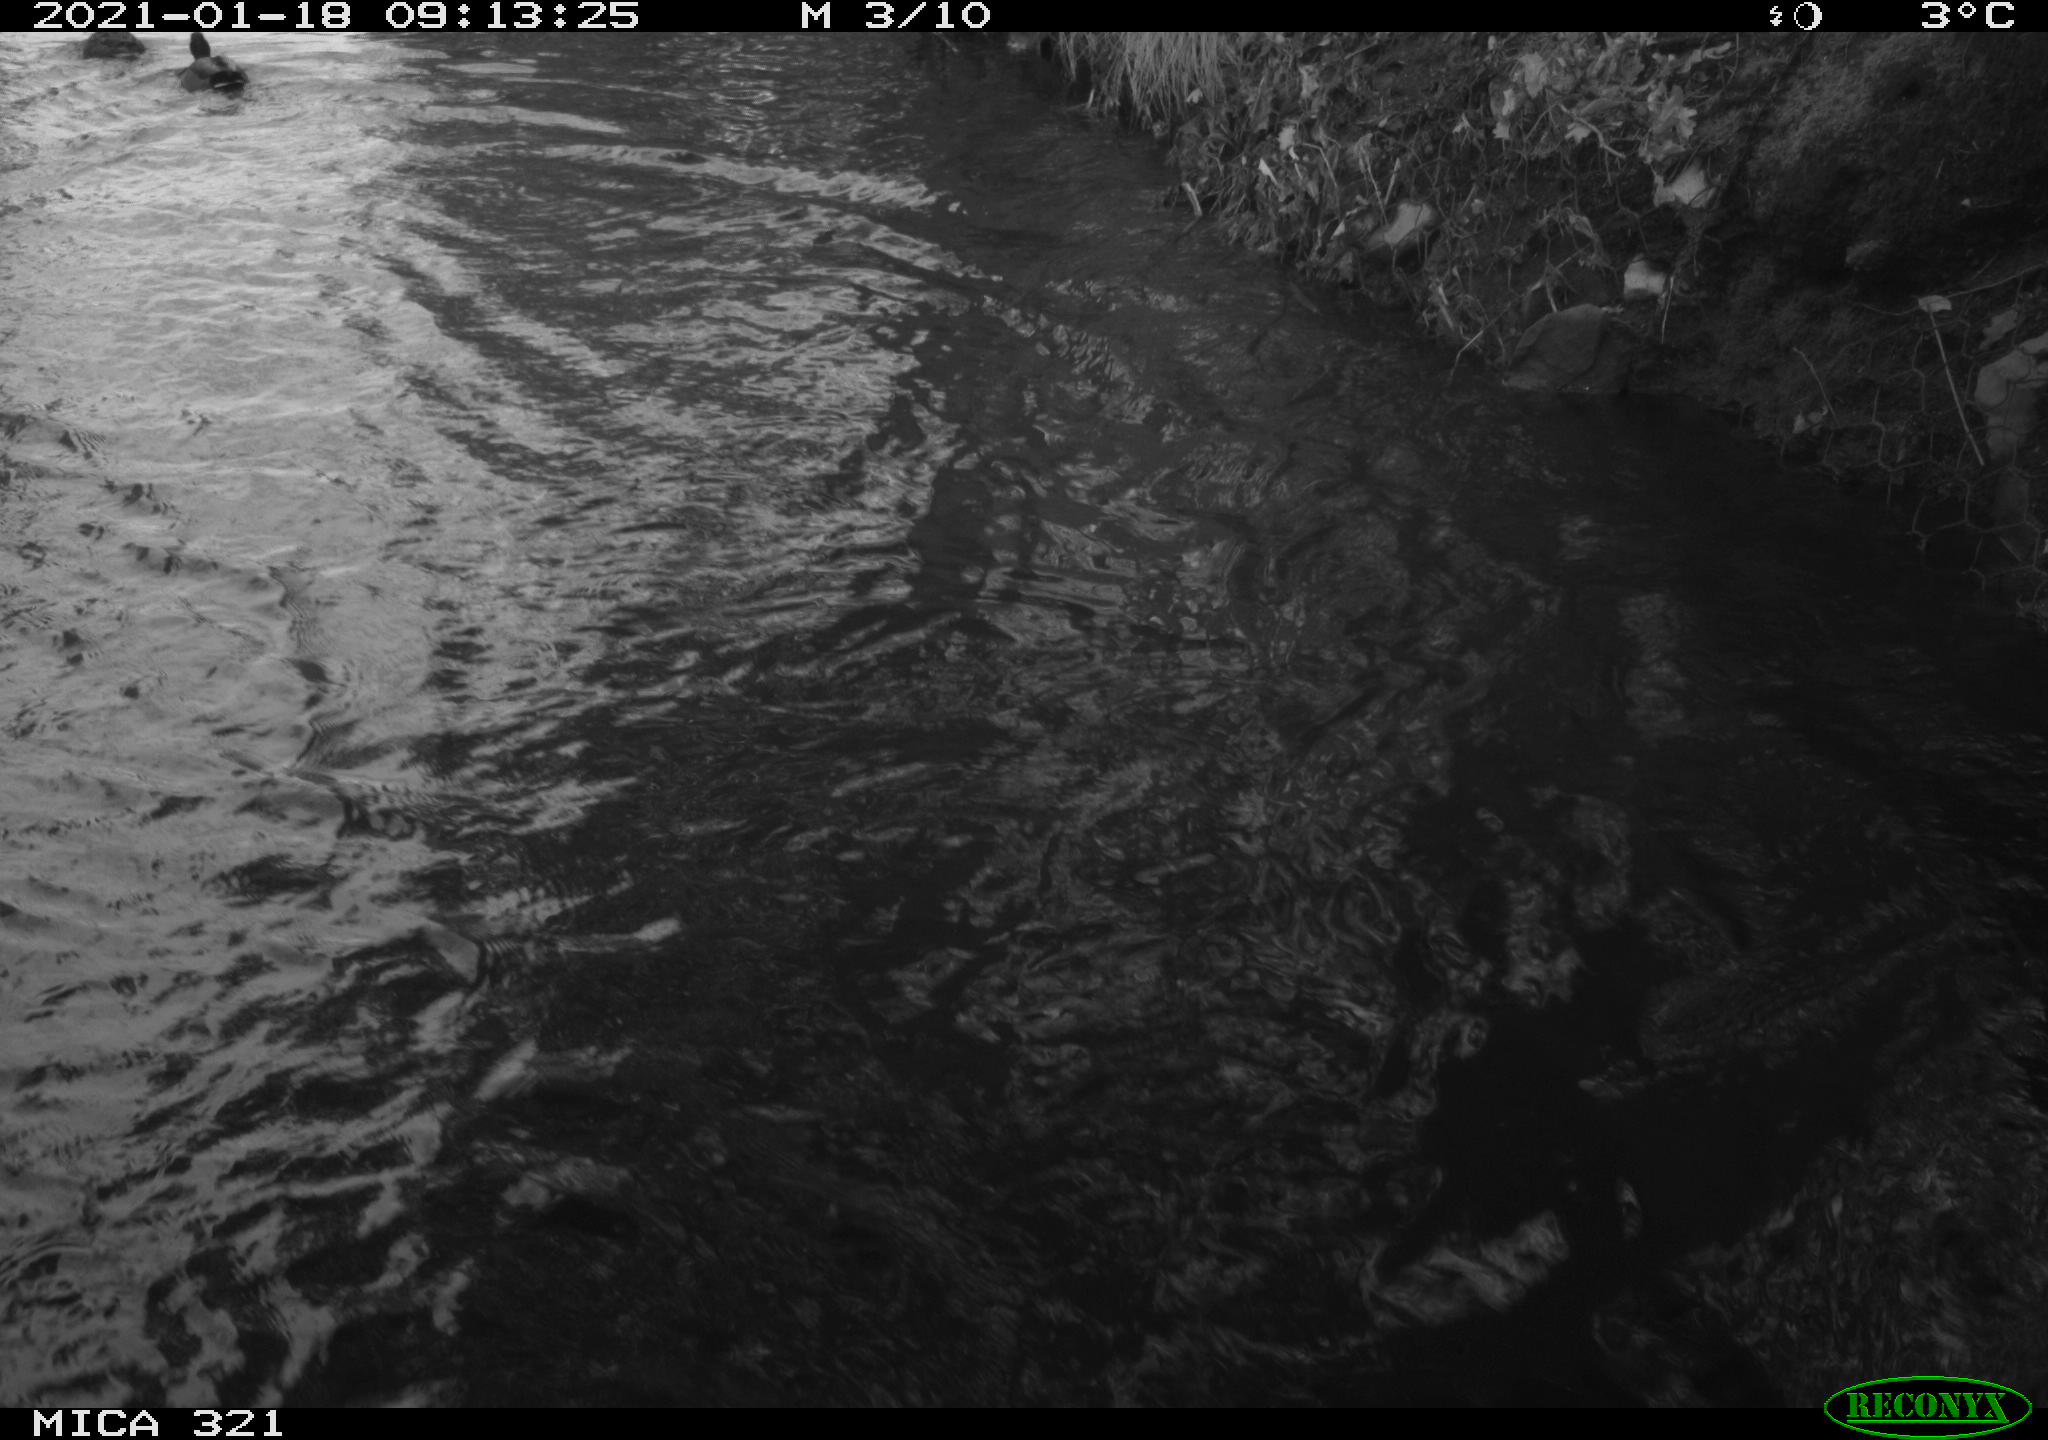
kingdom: Animalia
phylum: Chordata
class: Aves
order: Anseriformes
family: Anatidae
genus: Anas
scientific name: Anas platyrhynchos
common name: Mallard
